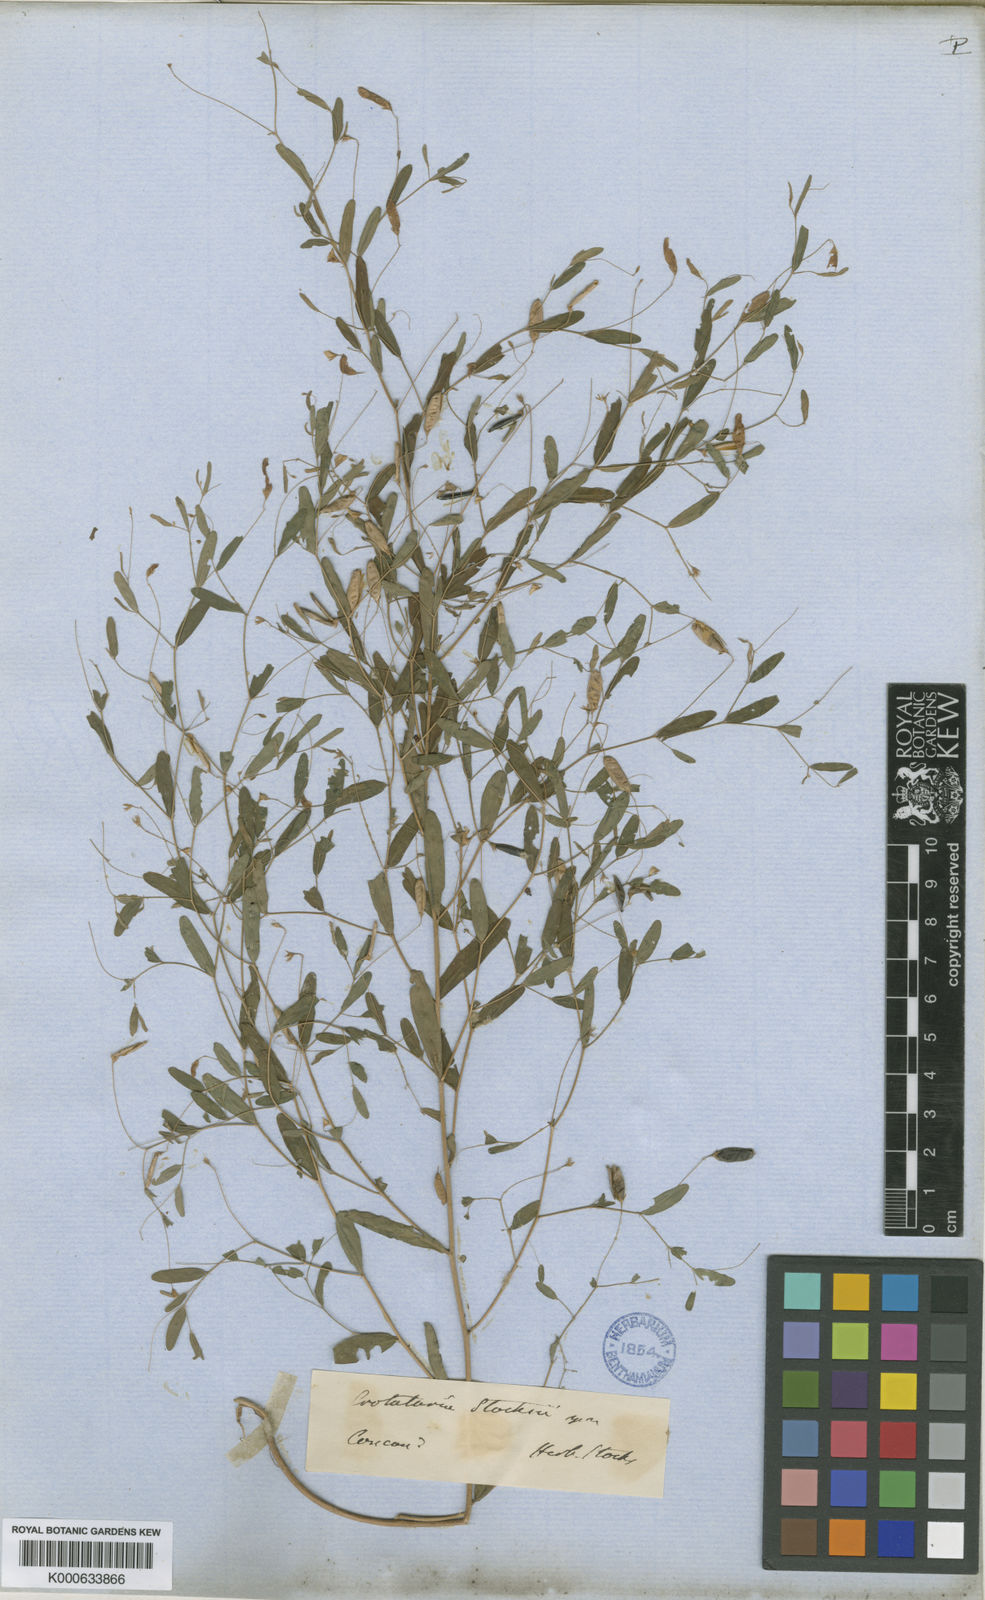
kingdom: Plantae
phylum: Tracheophyta
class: Magnoliopsida
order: Fabales
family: Fabaceae
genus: Crotalaria
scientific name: Crotalaria stocksii
